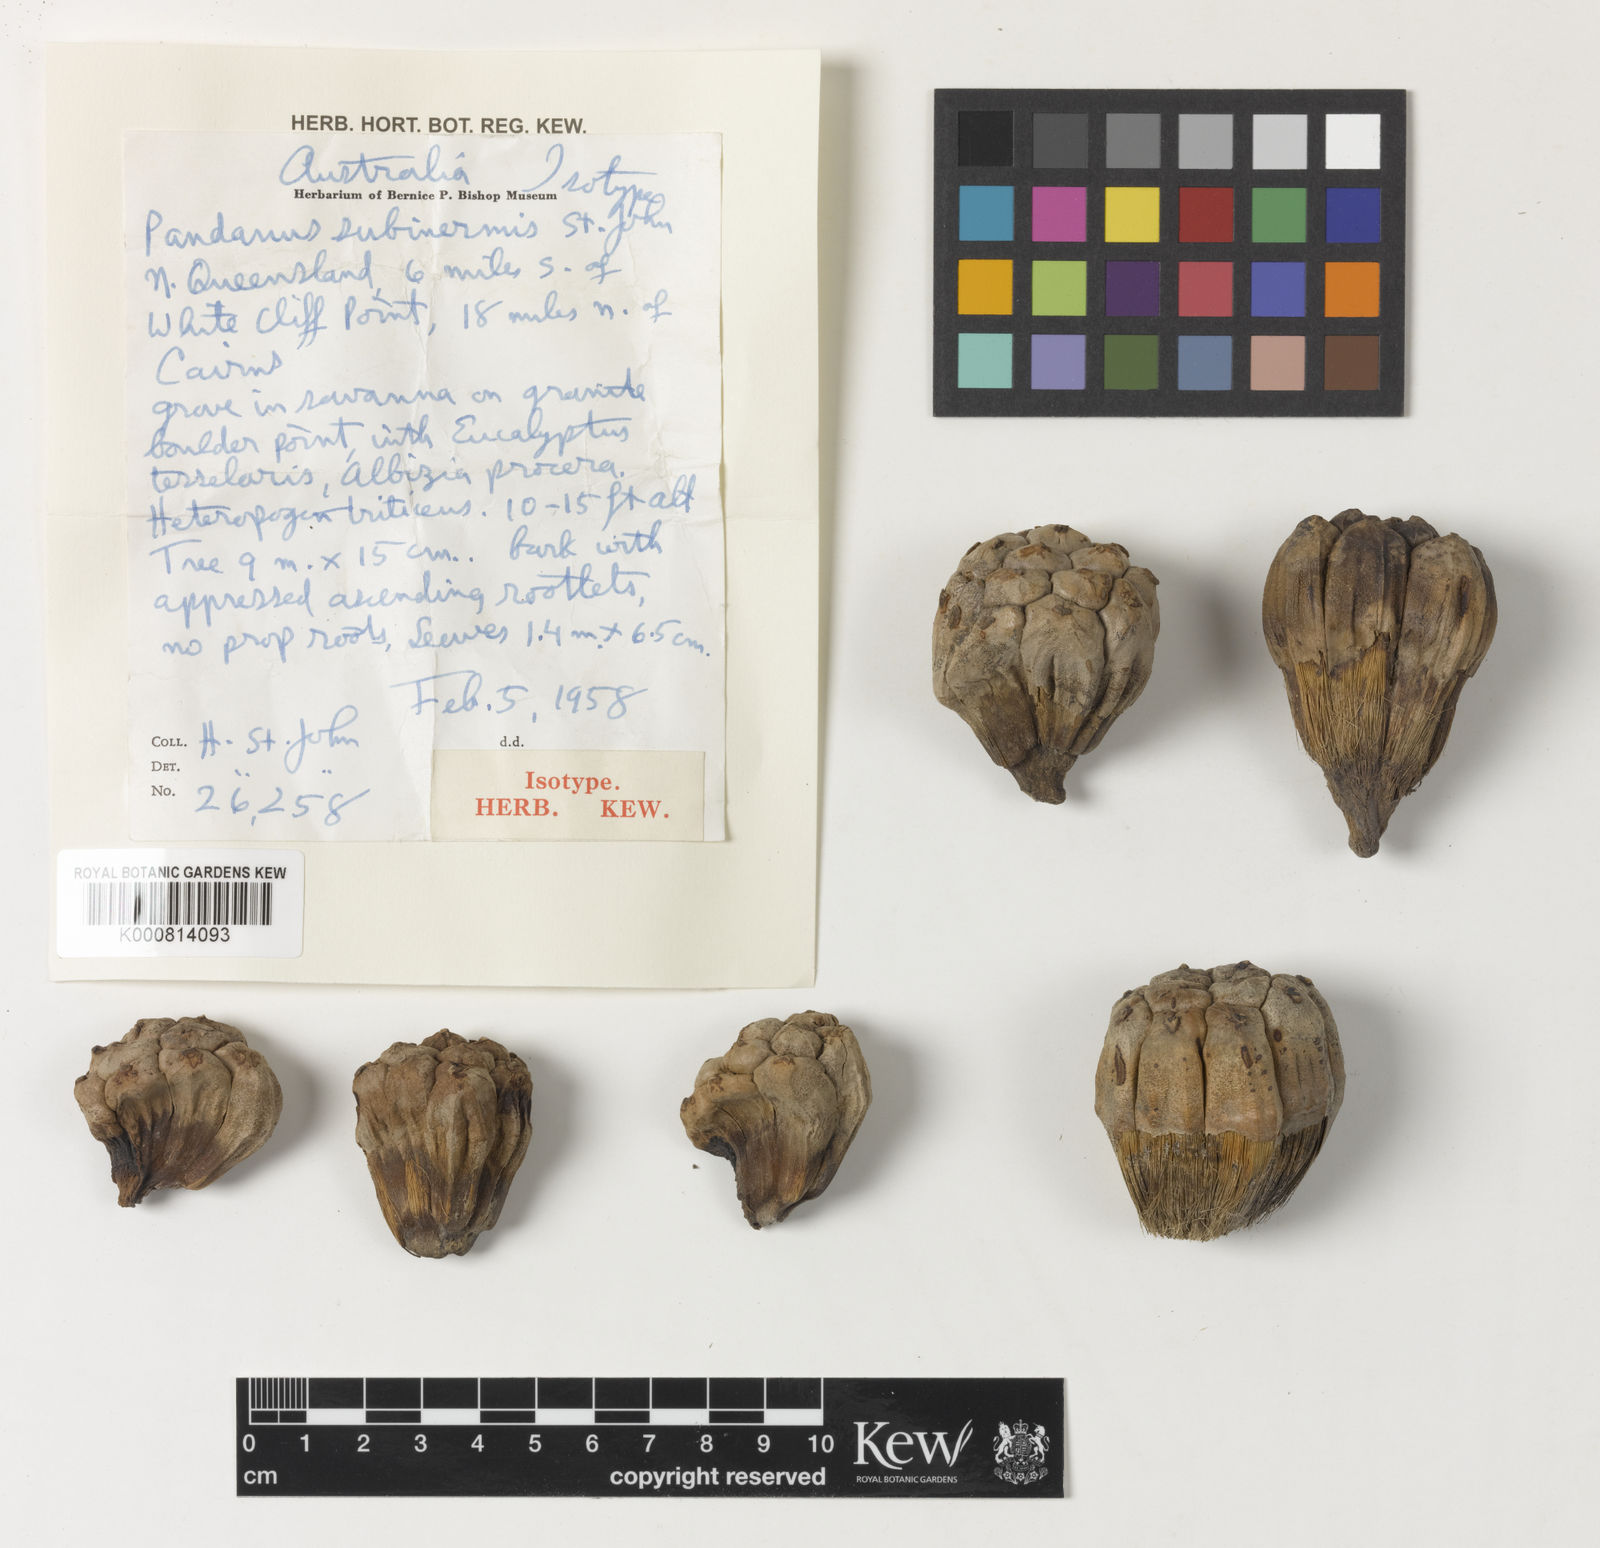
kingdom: Plantae
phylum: Tracheophyta
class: Liliopsida
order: Pandanales
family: Pandanaceae
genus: Pandanus
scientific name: Pandanus cookii
